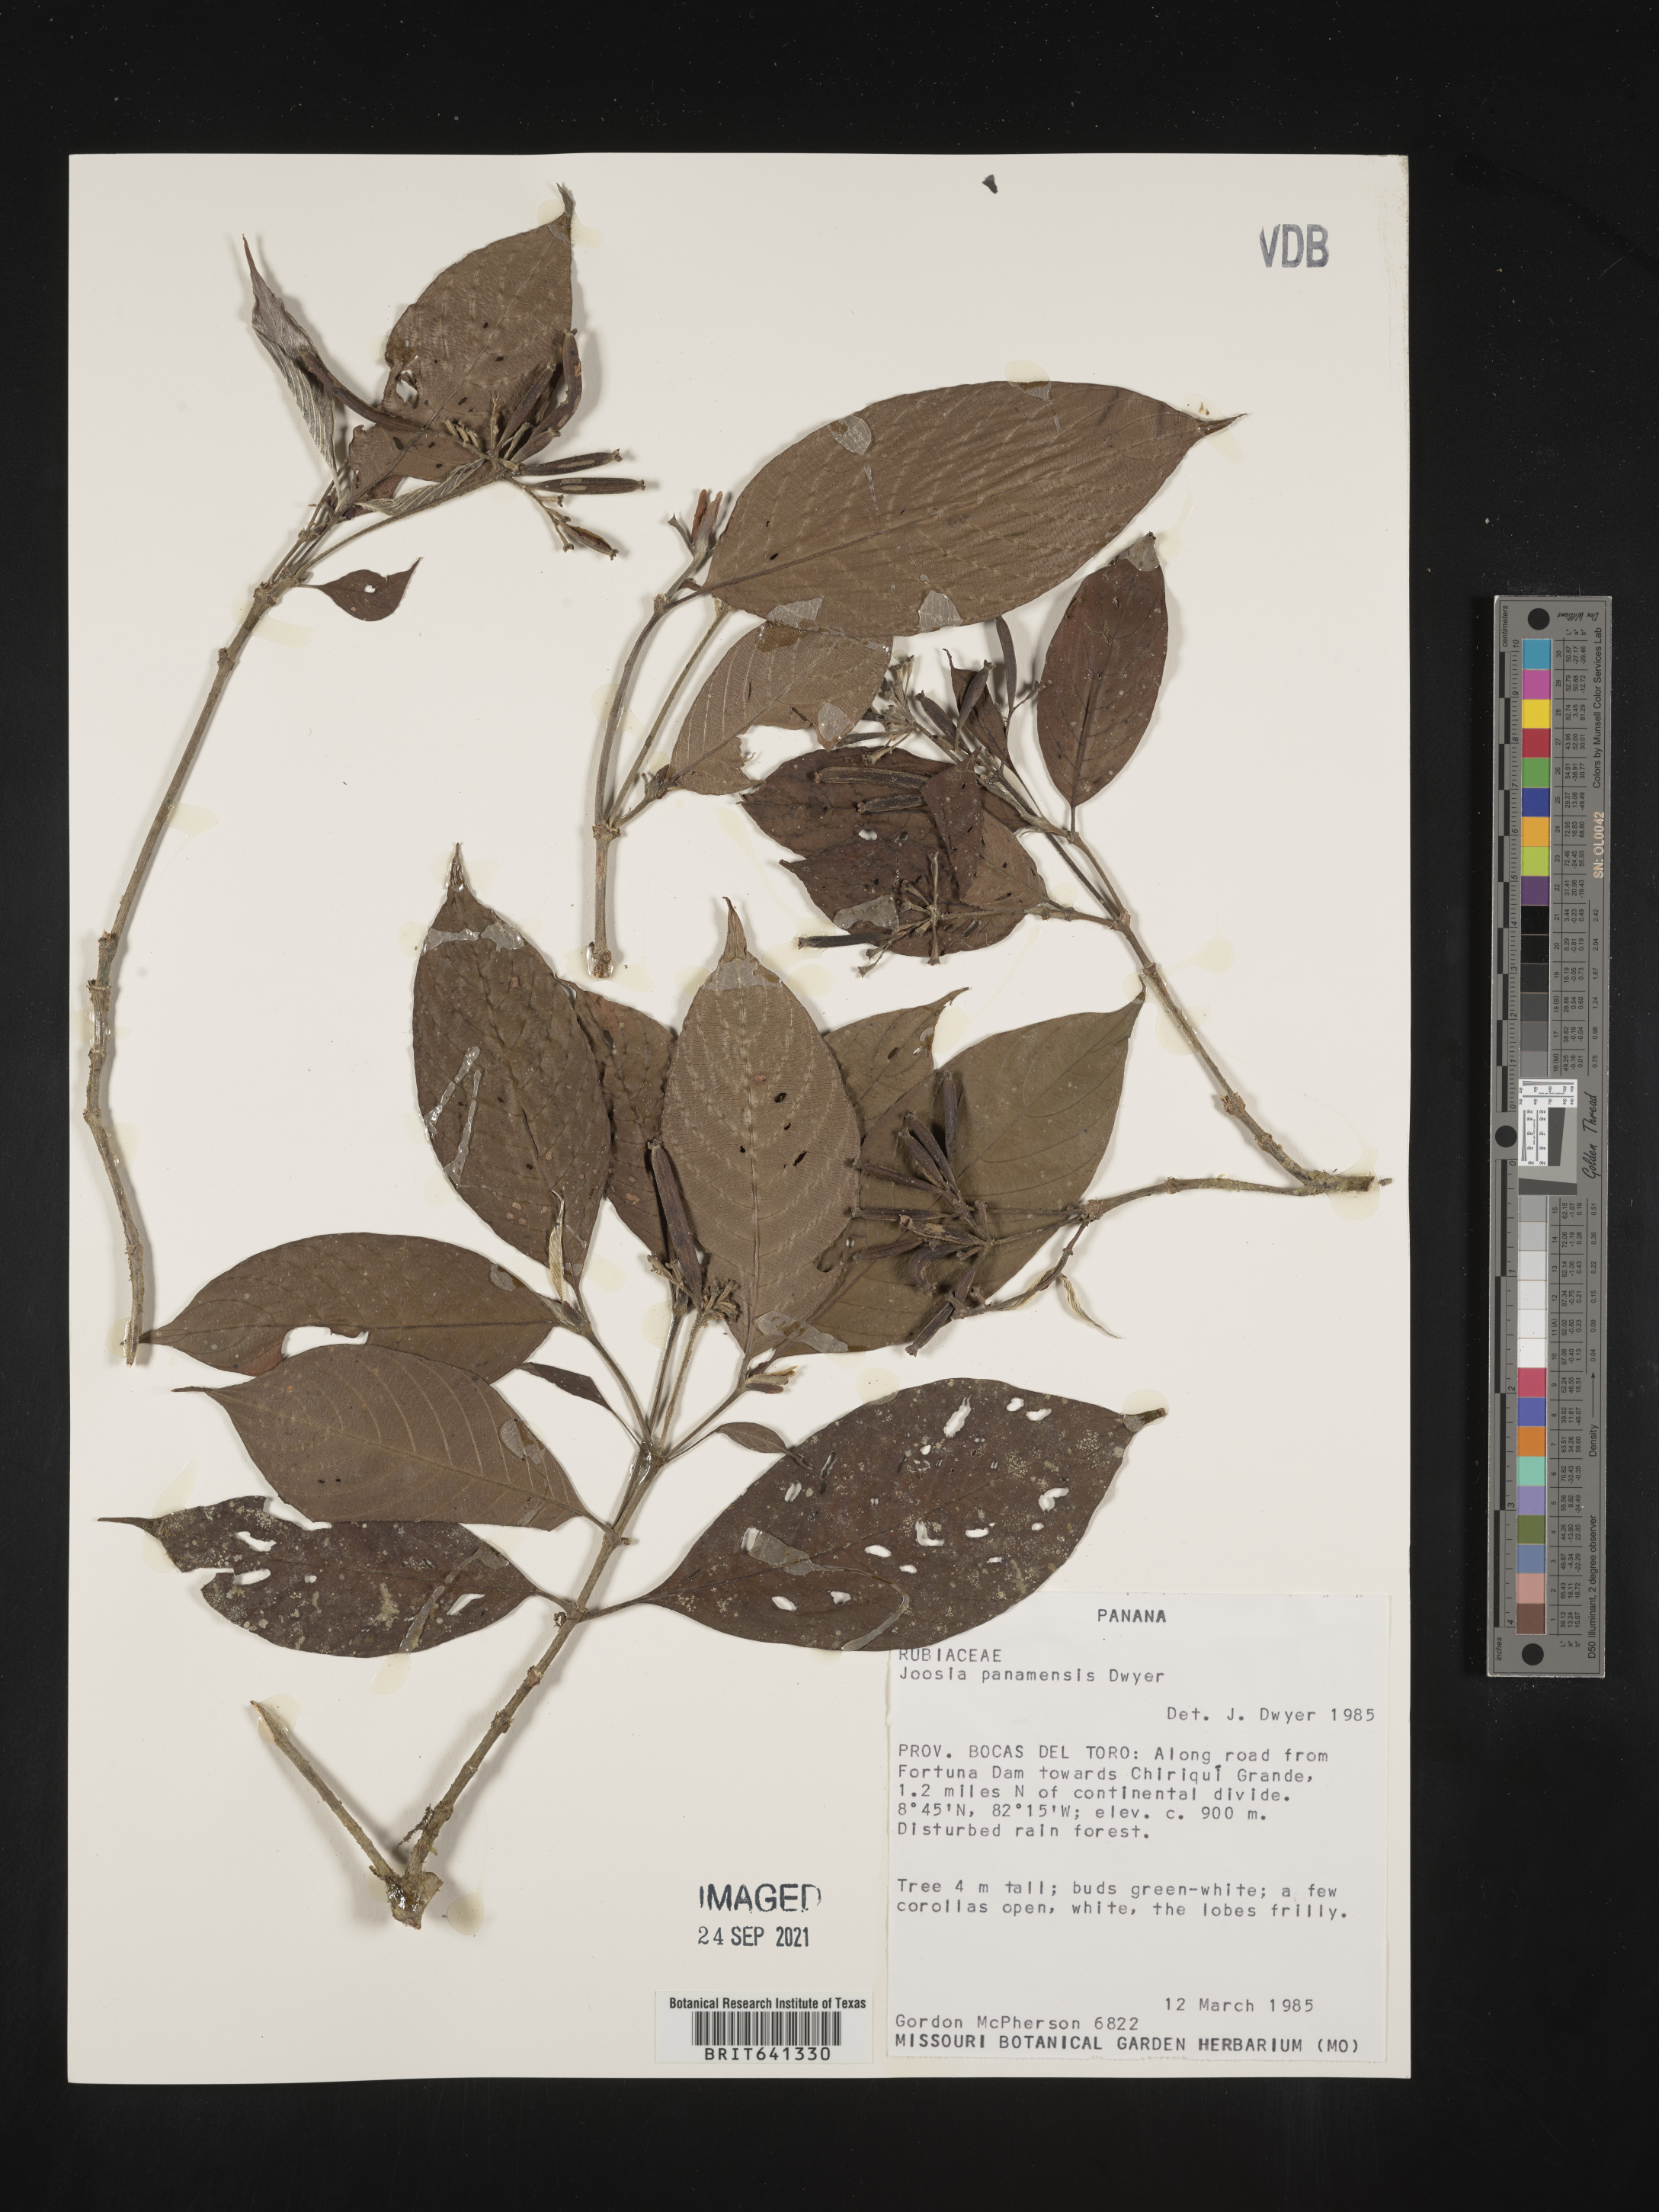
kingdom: Plantae
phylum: Tracheophyta
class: Magnoliopsida
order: Gentianales
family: Rubiaceae
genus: Psychotria
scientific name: Psychotria
